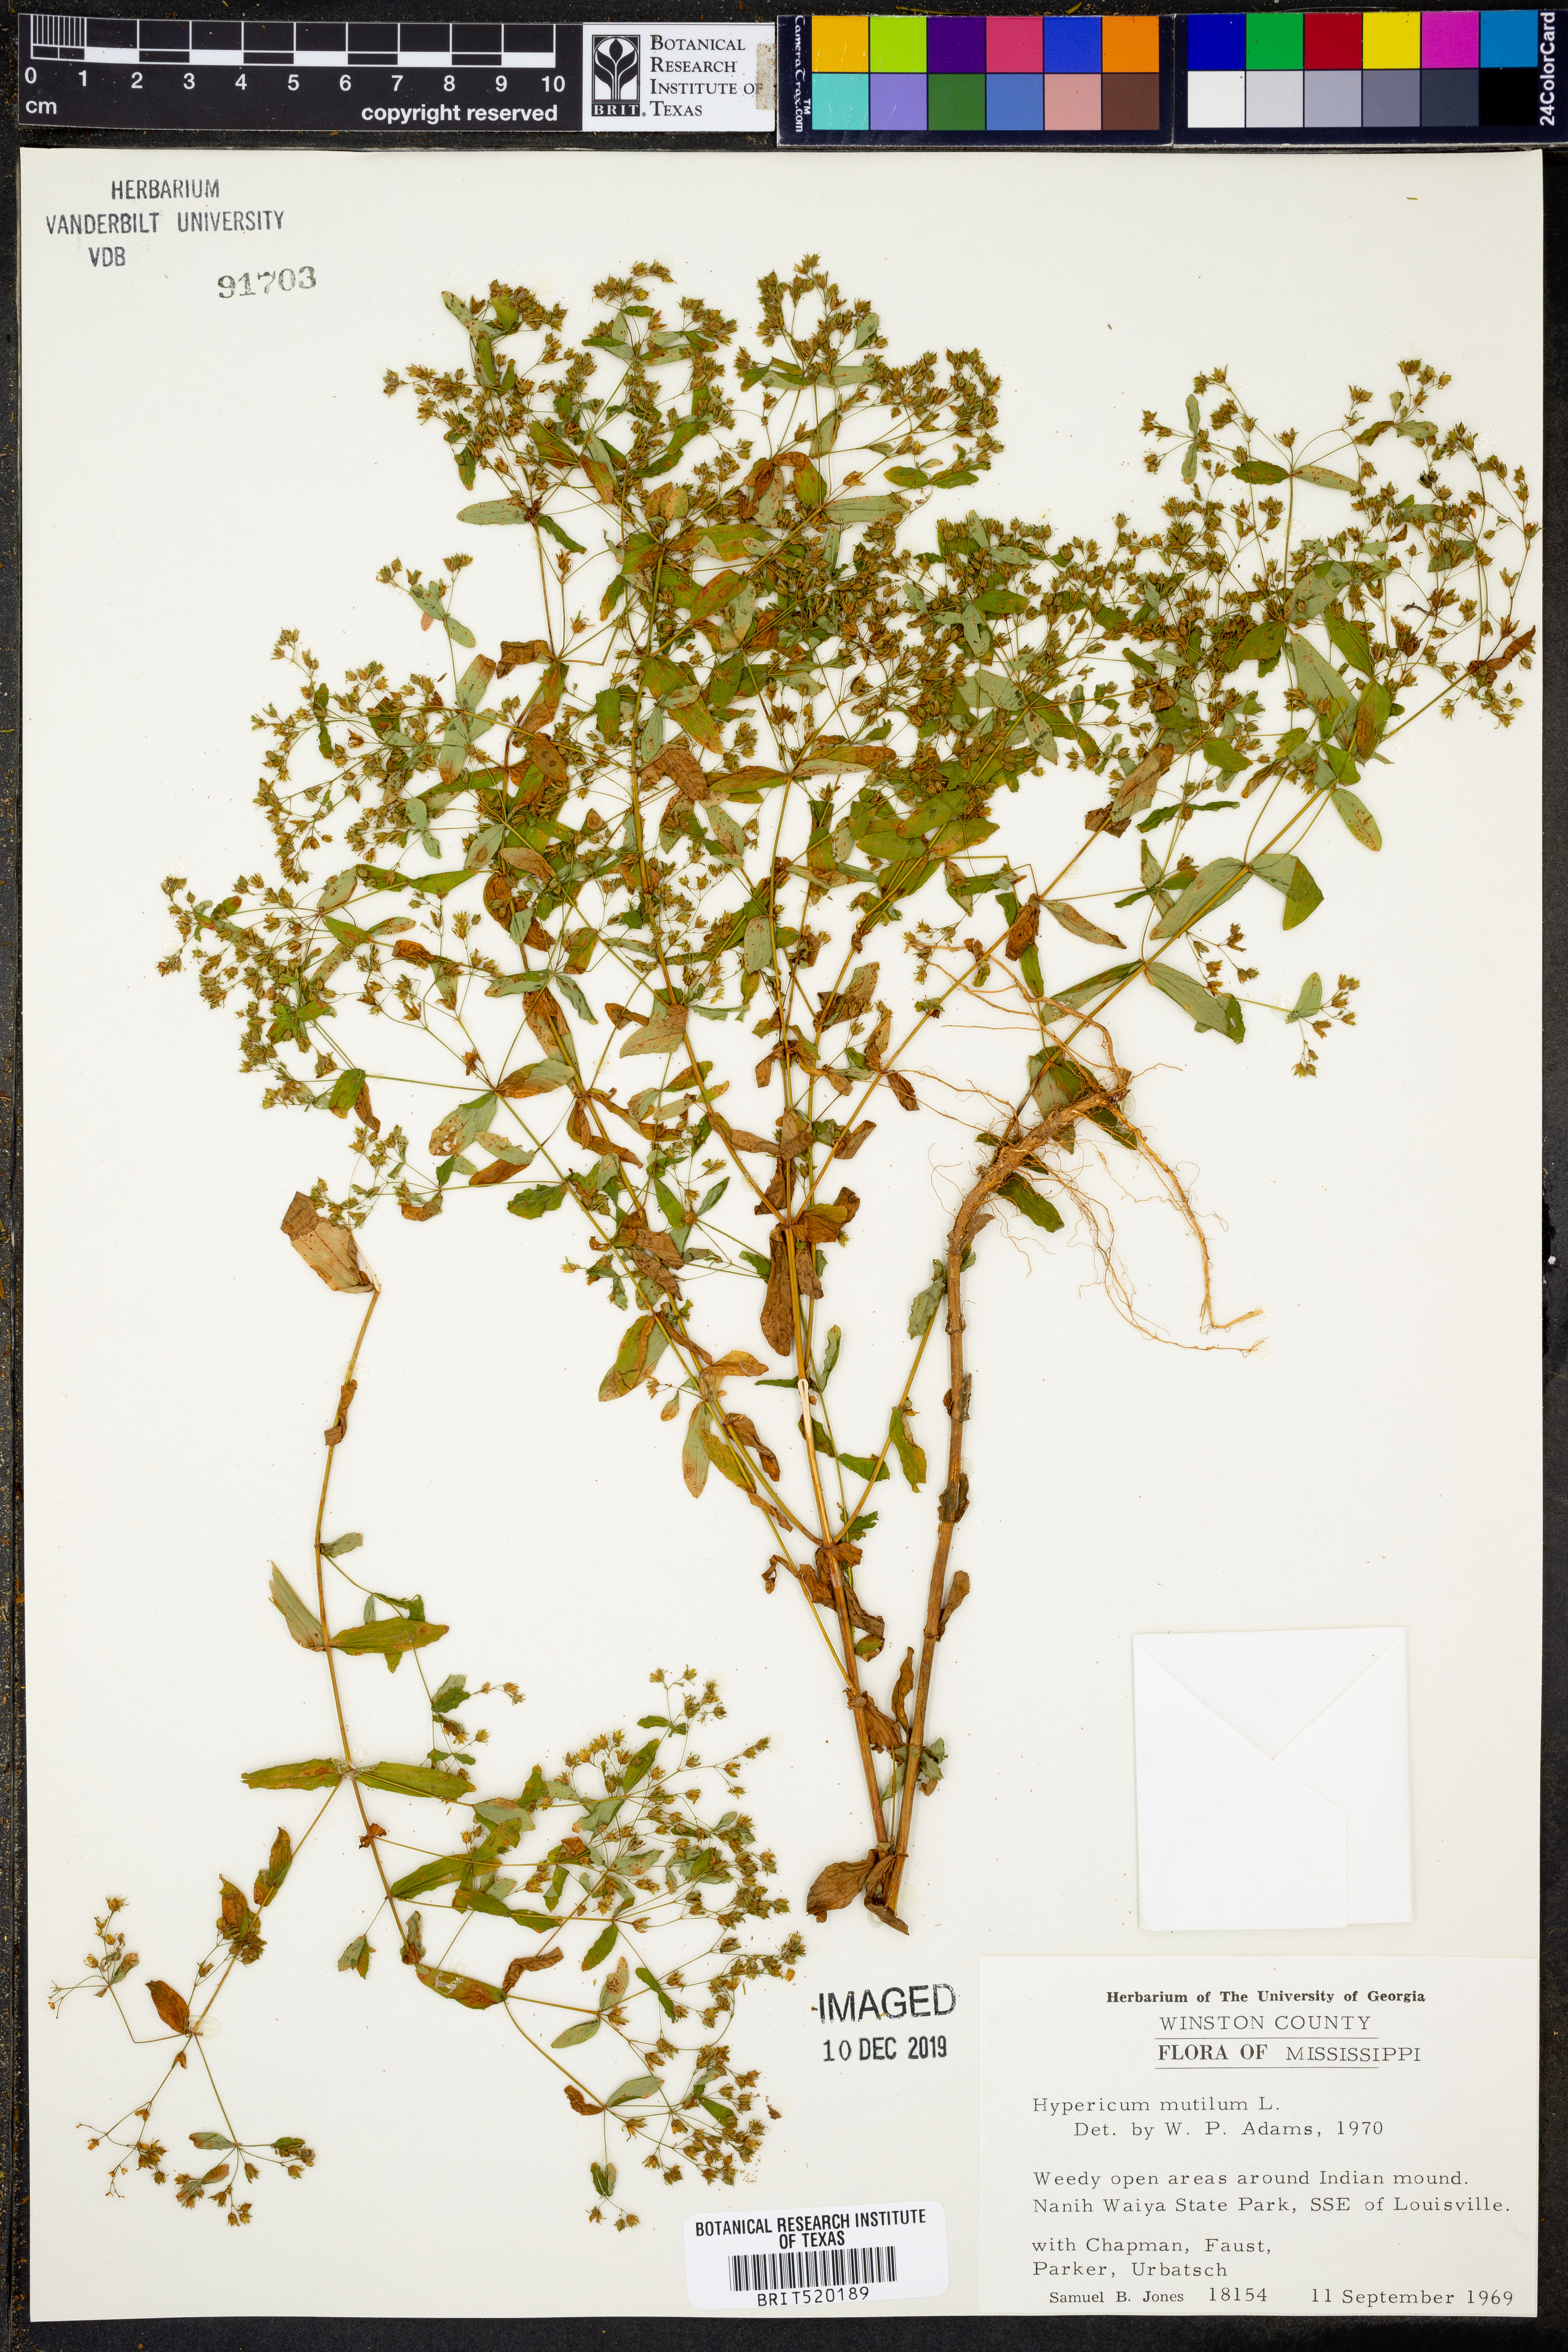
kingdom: Plantae
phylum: Tracheophyta
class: Magnoliopsida
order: Malpighiales
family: Hypericaceae
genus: Hypericum
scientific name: Hypericum mutilum
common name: Dwarf st. john's-wort
